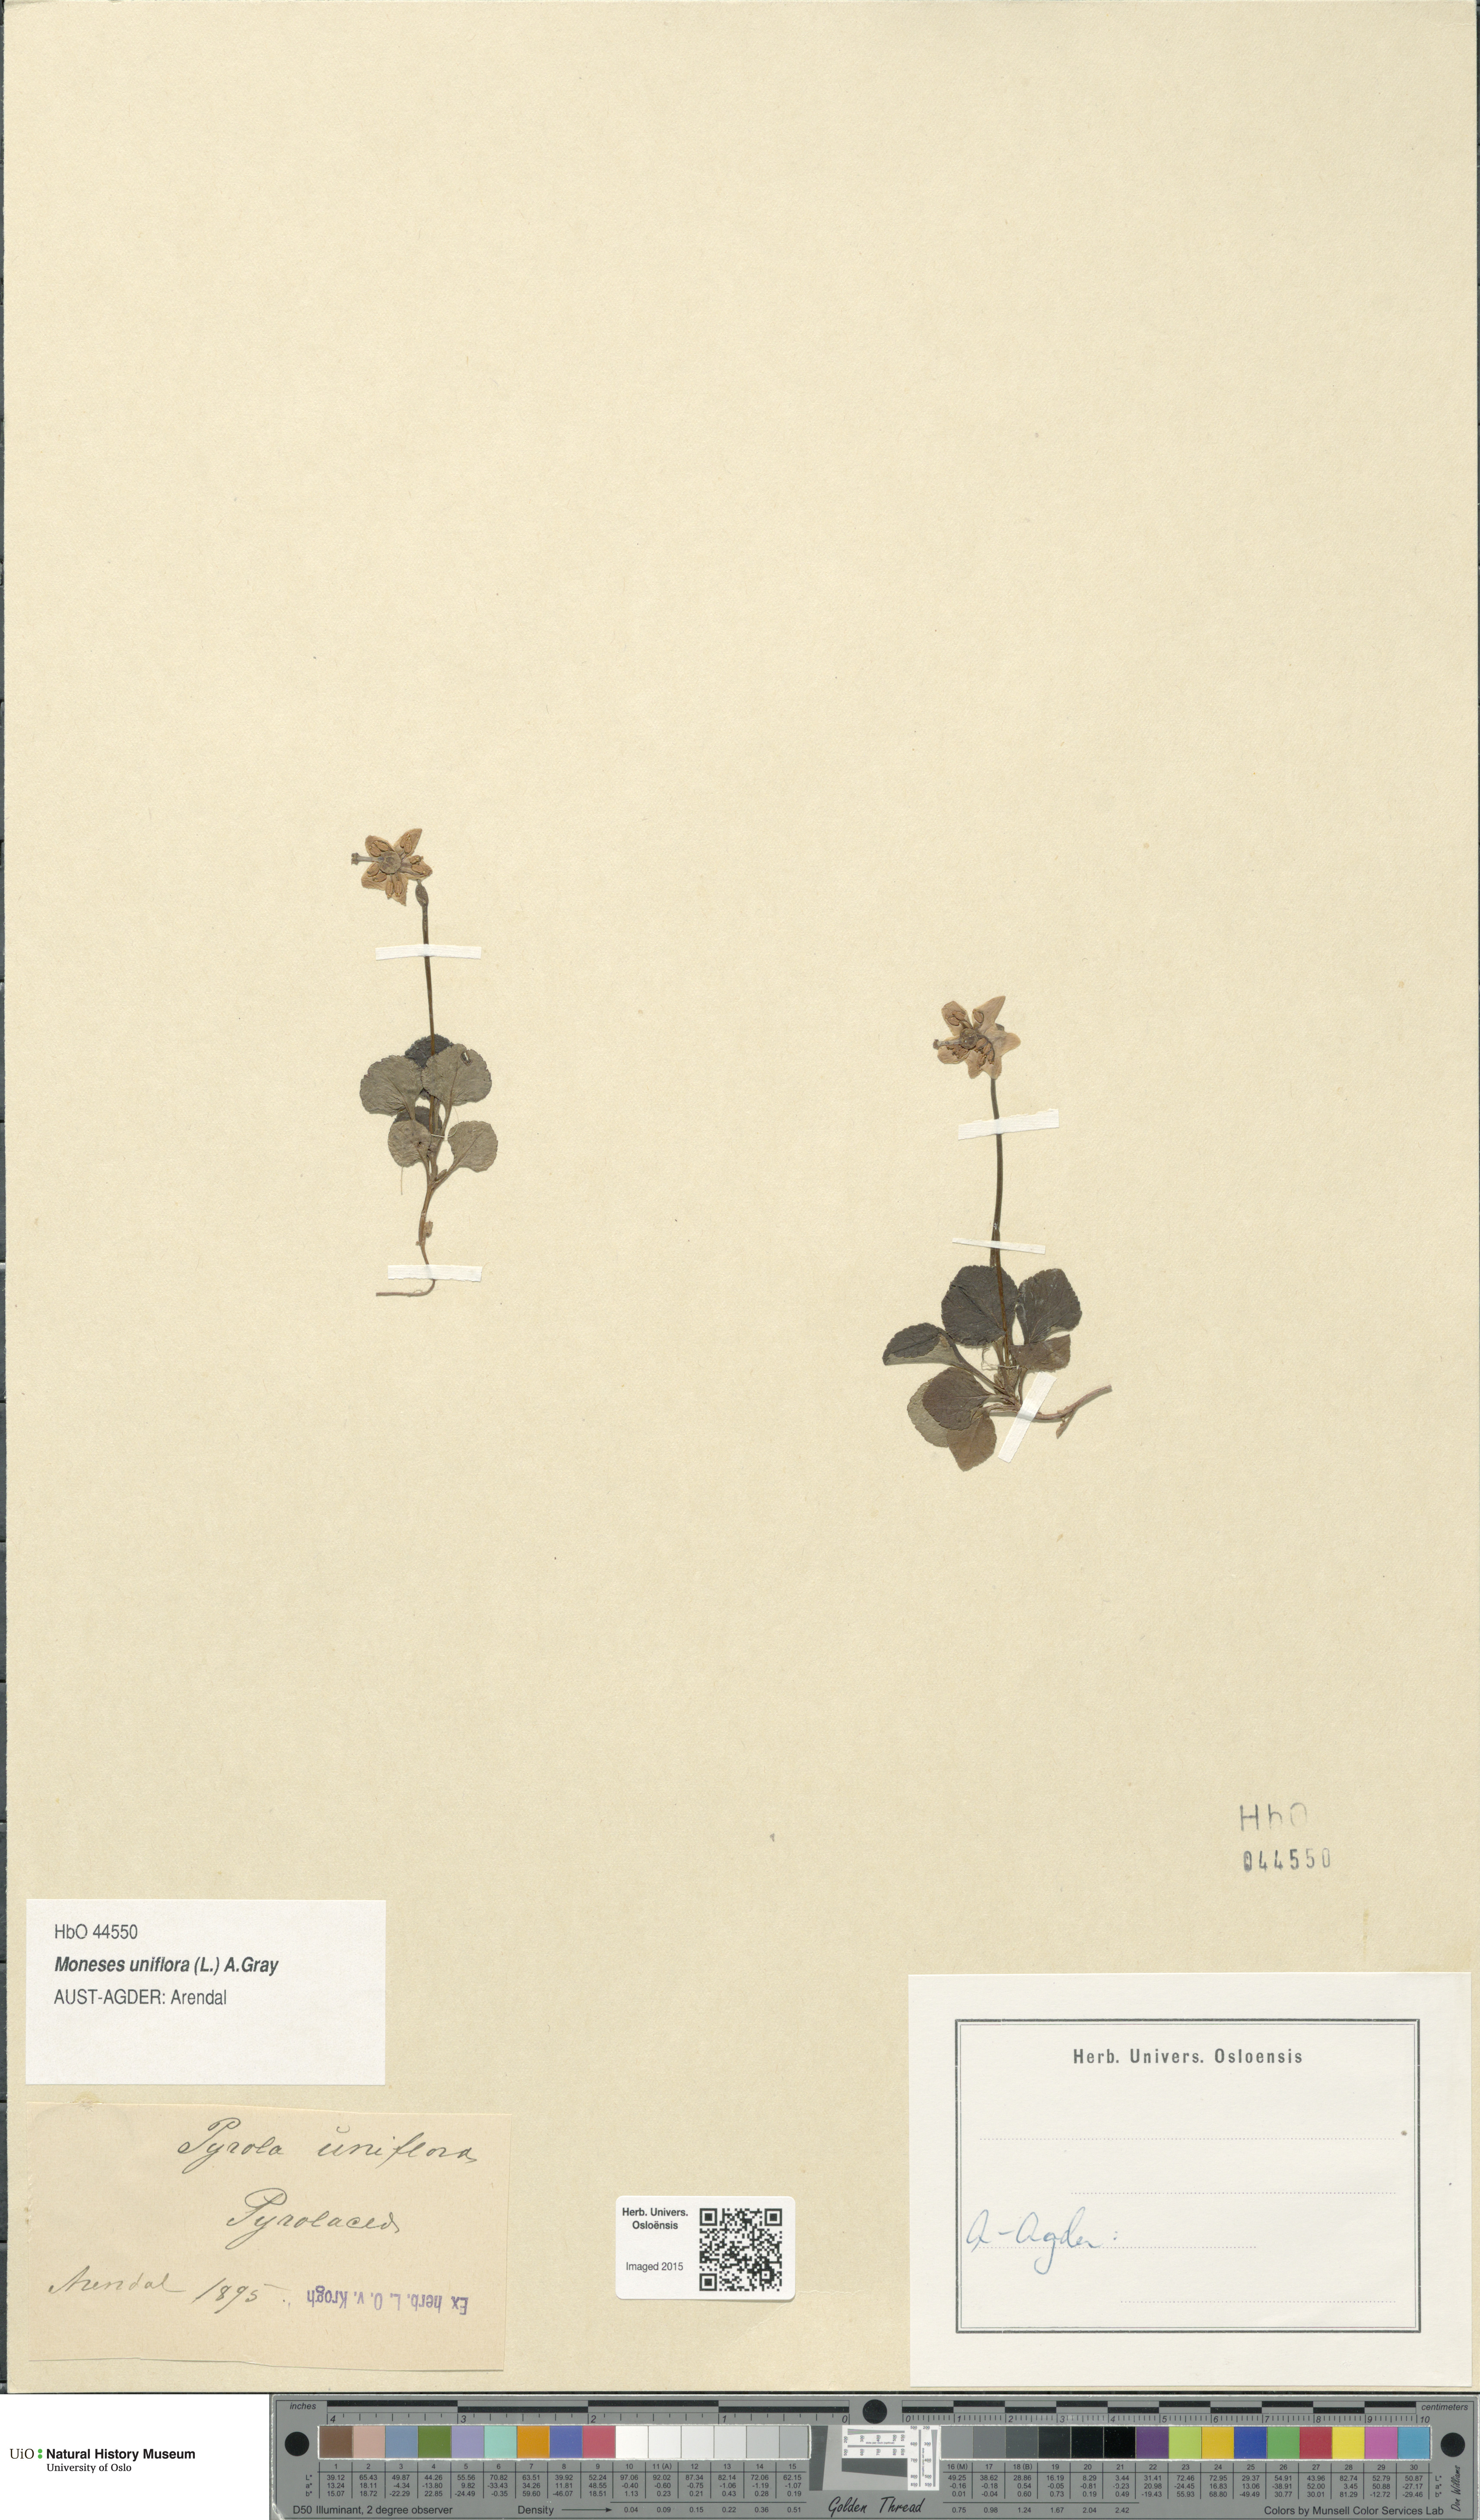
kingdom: Plantae
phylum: Tracheophyta
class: Magnoliopsida
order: Ericales
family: Ericaceae
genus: Moneses
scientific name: Moneses uniflora
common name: One-flowered wintergreen
